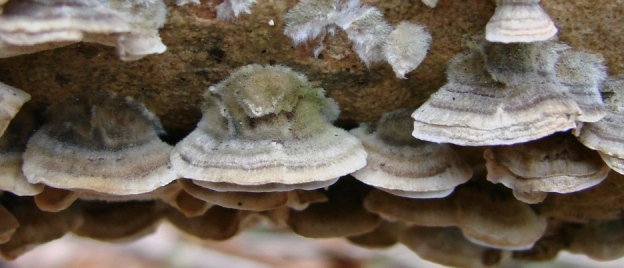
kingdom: Fungi
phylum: Basidiomycota
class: Agaricomycetes
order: Polyporales
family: Polyporaceae
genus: Trametes
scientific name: Trametes versicolor
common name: broget læderporesvamp
